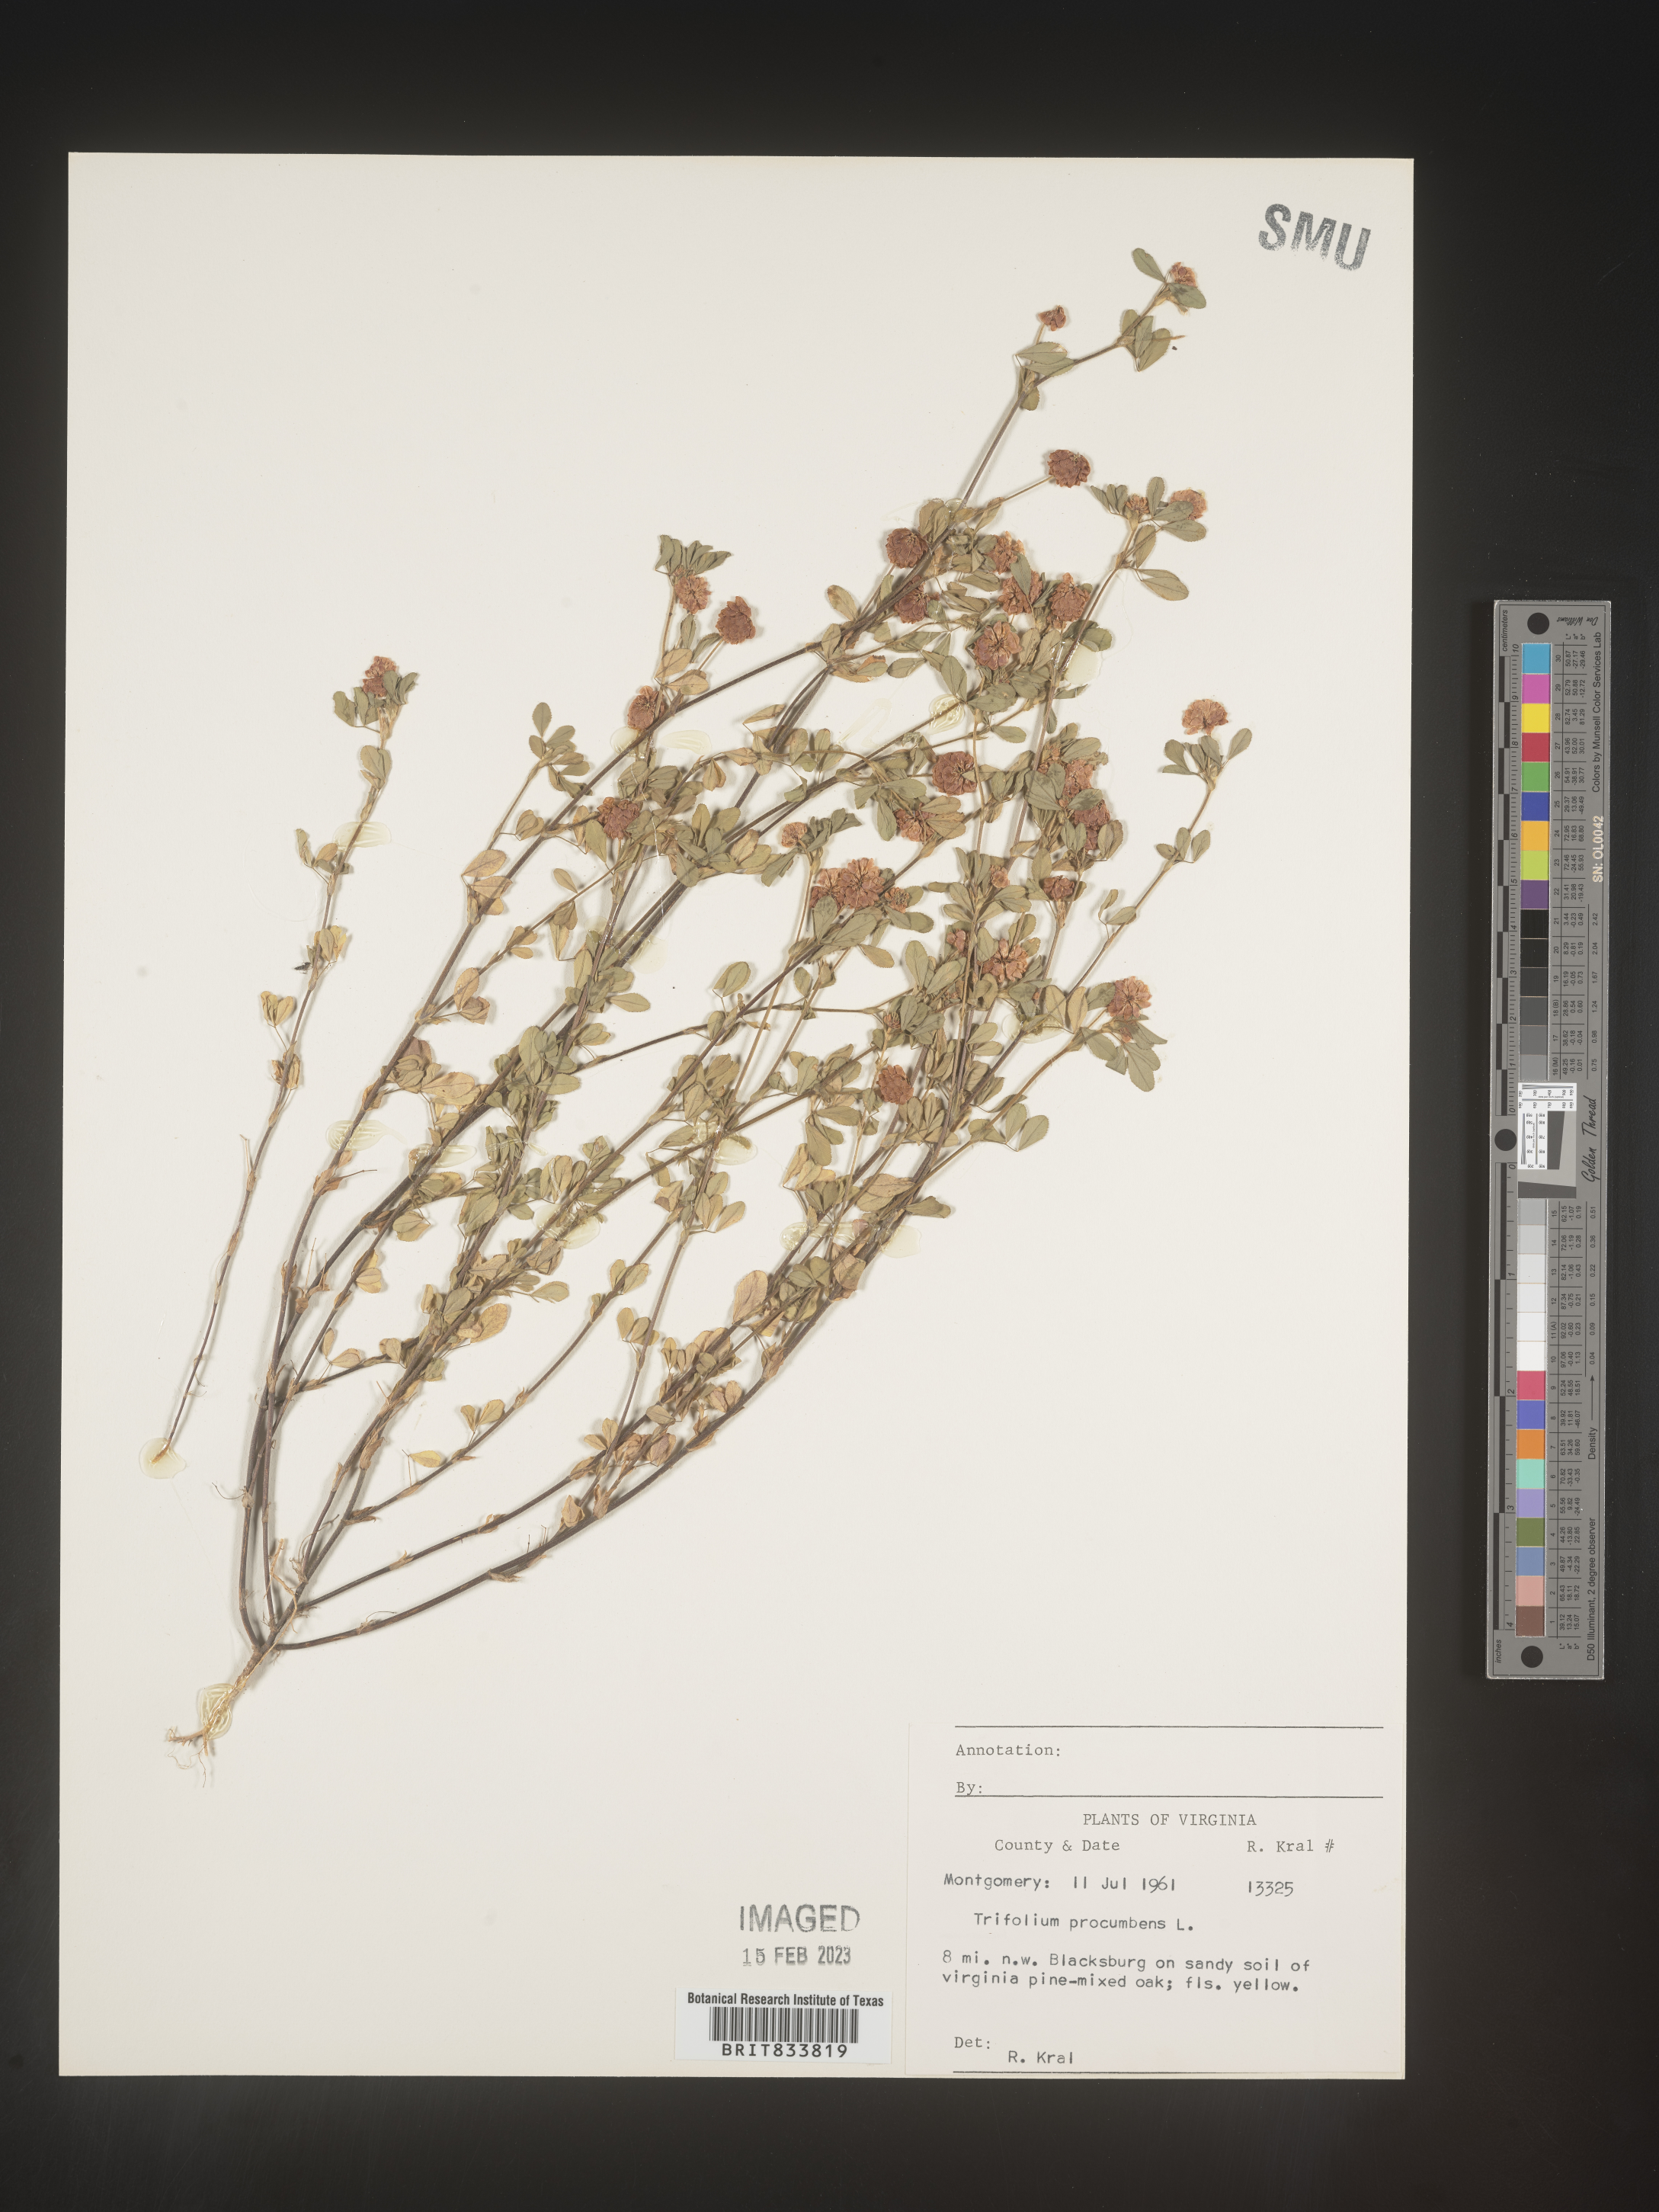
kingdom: Plantae
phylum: Tracheophyta
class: Magnoliopsida
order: Fabales
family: Fabaceae
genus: Trifolium
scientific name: Trifolium campestre
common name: Field clover
